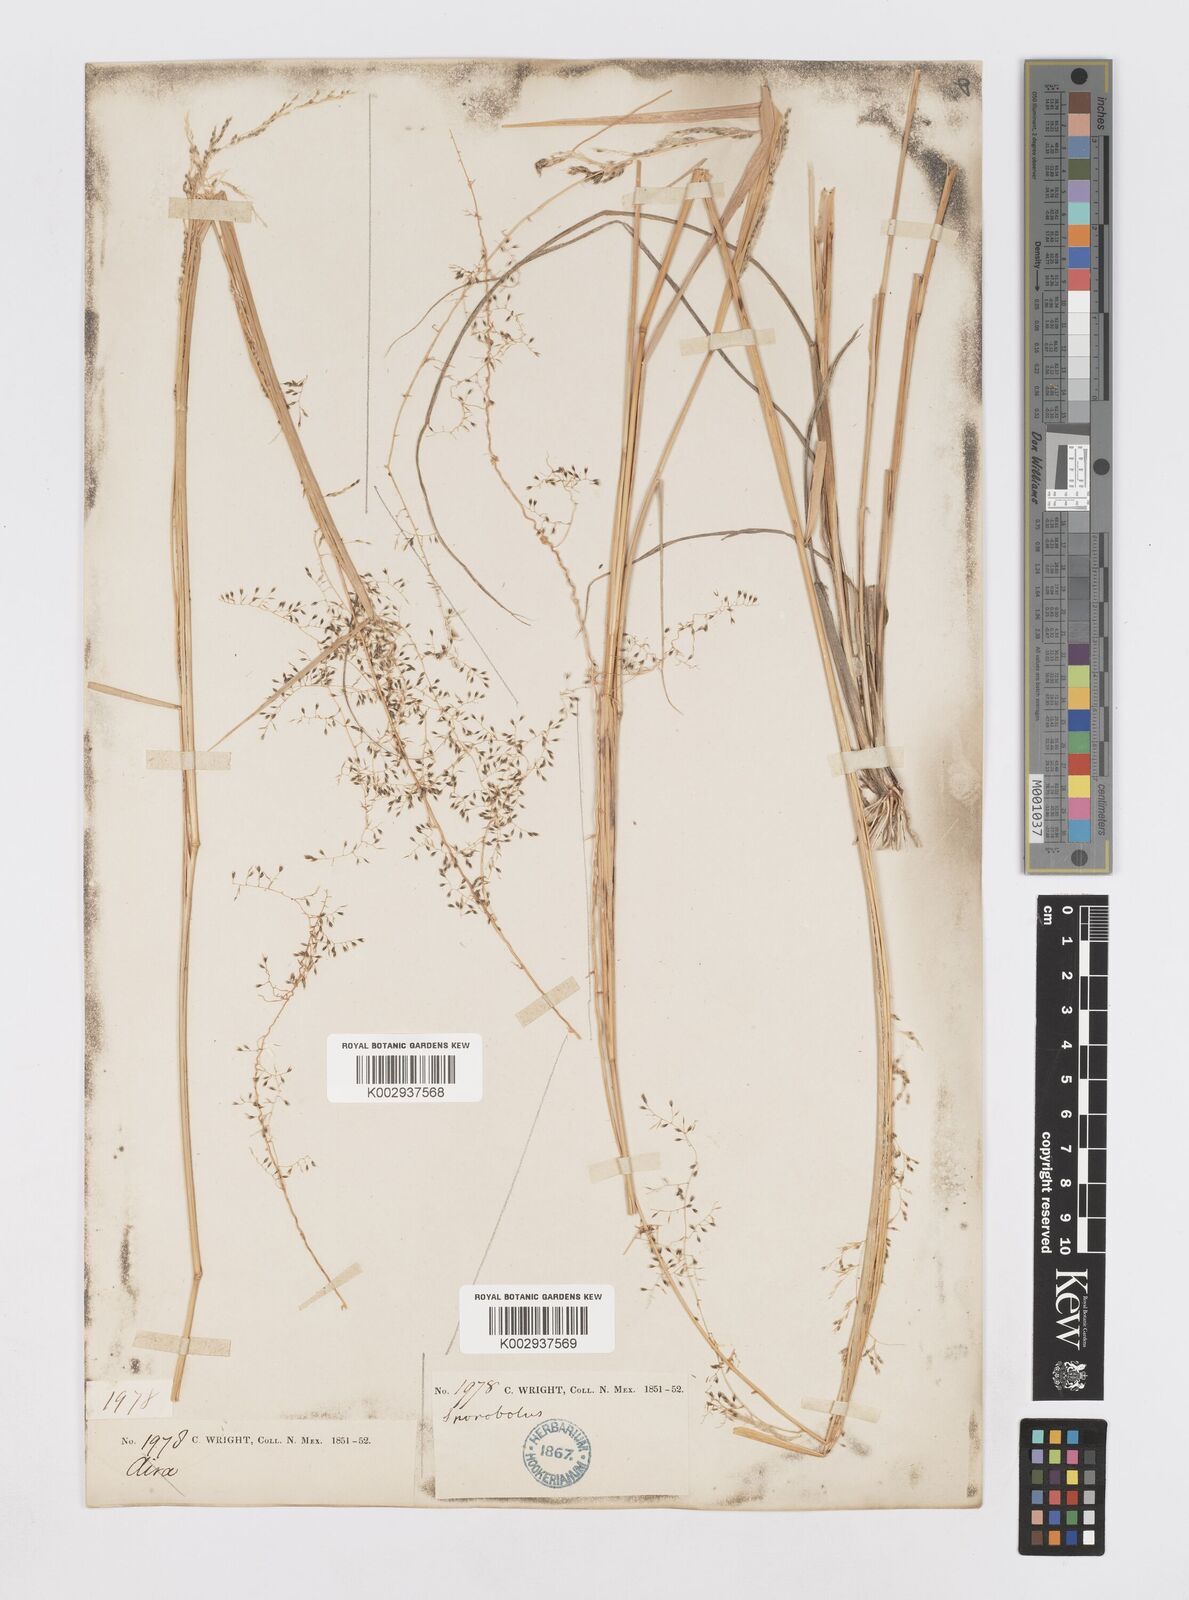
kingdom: Plantae
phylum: Tracheophyta
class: Liliopsida
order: Poales
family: Poaceae
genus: Sporobolus
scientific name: Sporobolus
